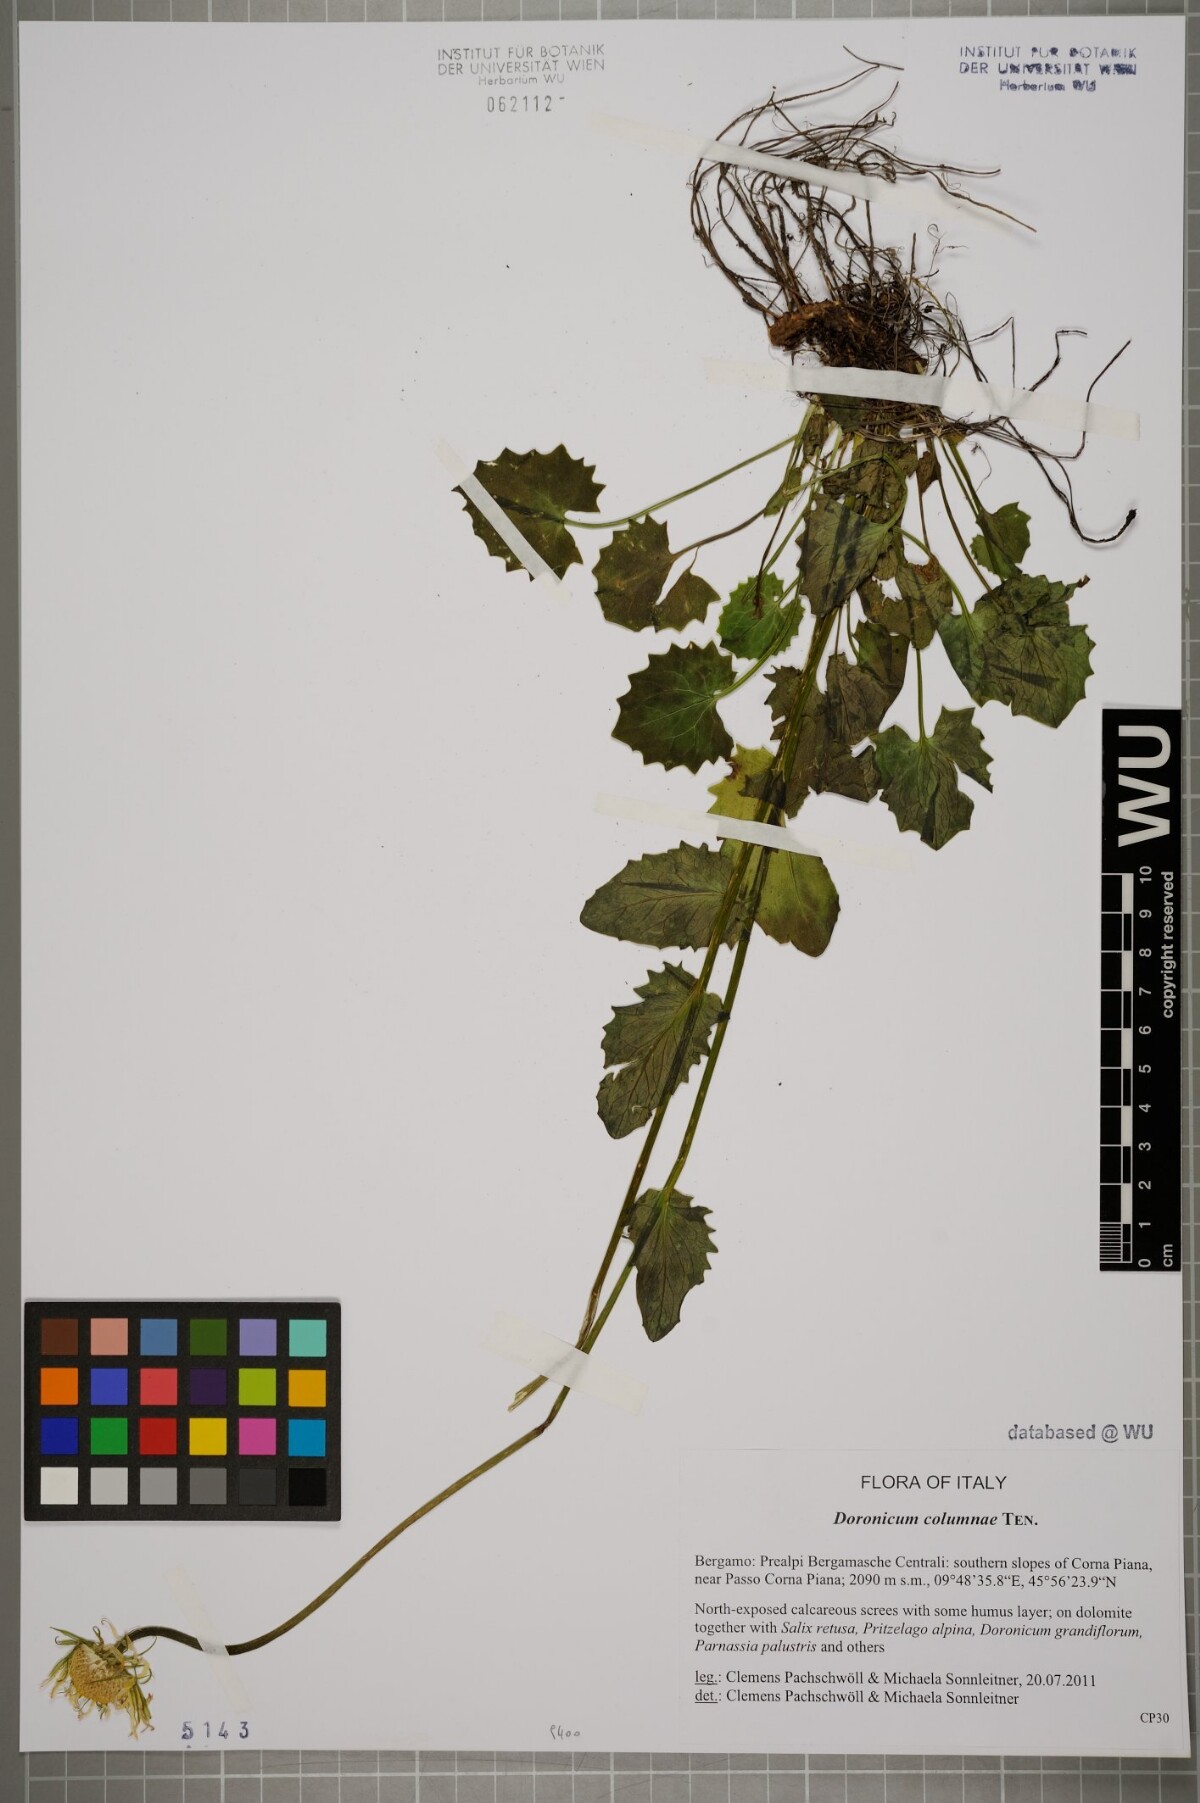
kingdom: Plantae
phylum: Tracheophyta
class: Magnoliopsida
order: Asterales
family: Asteraceae
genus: Doronicum
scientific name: Doronicum columnae
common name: Eastern leopard's-bane
